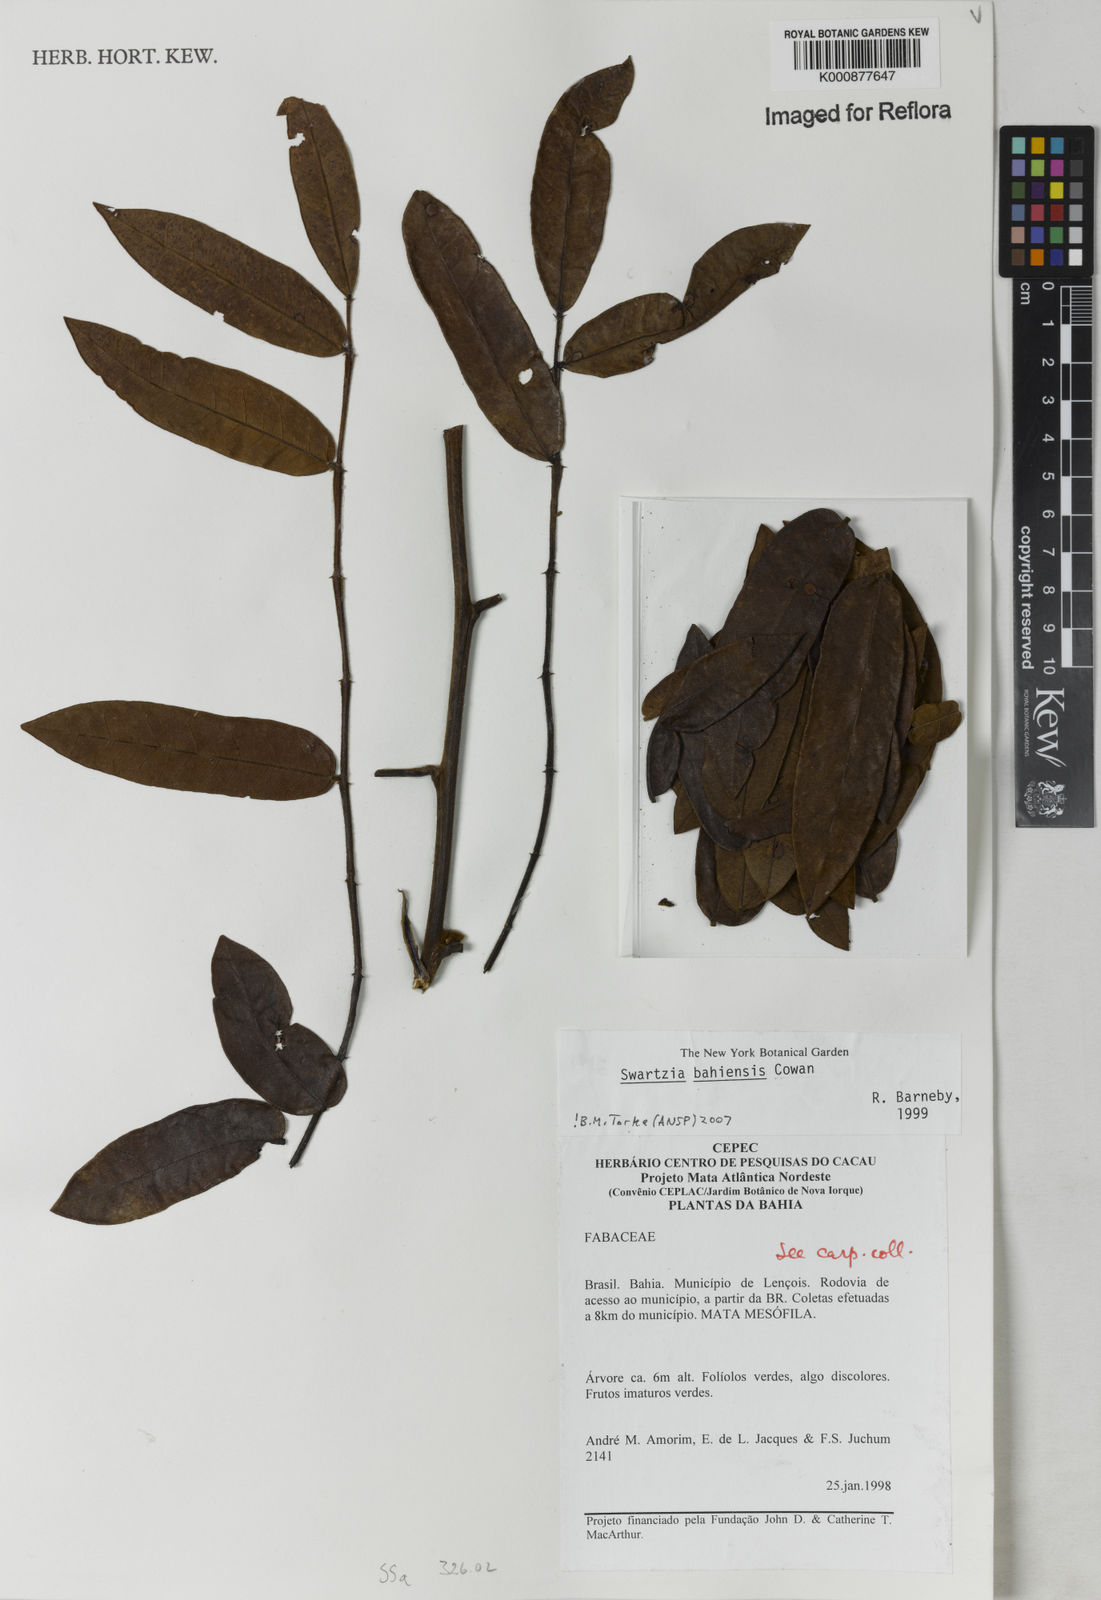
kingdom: Plantae
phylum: Tracheophyta
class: Magnoliopsida
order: Fabales
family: Fabaceae
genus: Swartzia
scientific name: Swartzia bahiensis
